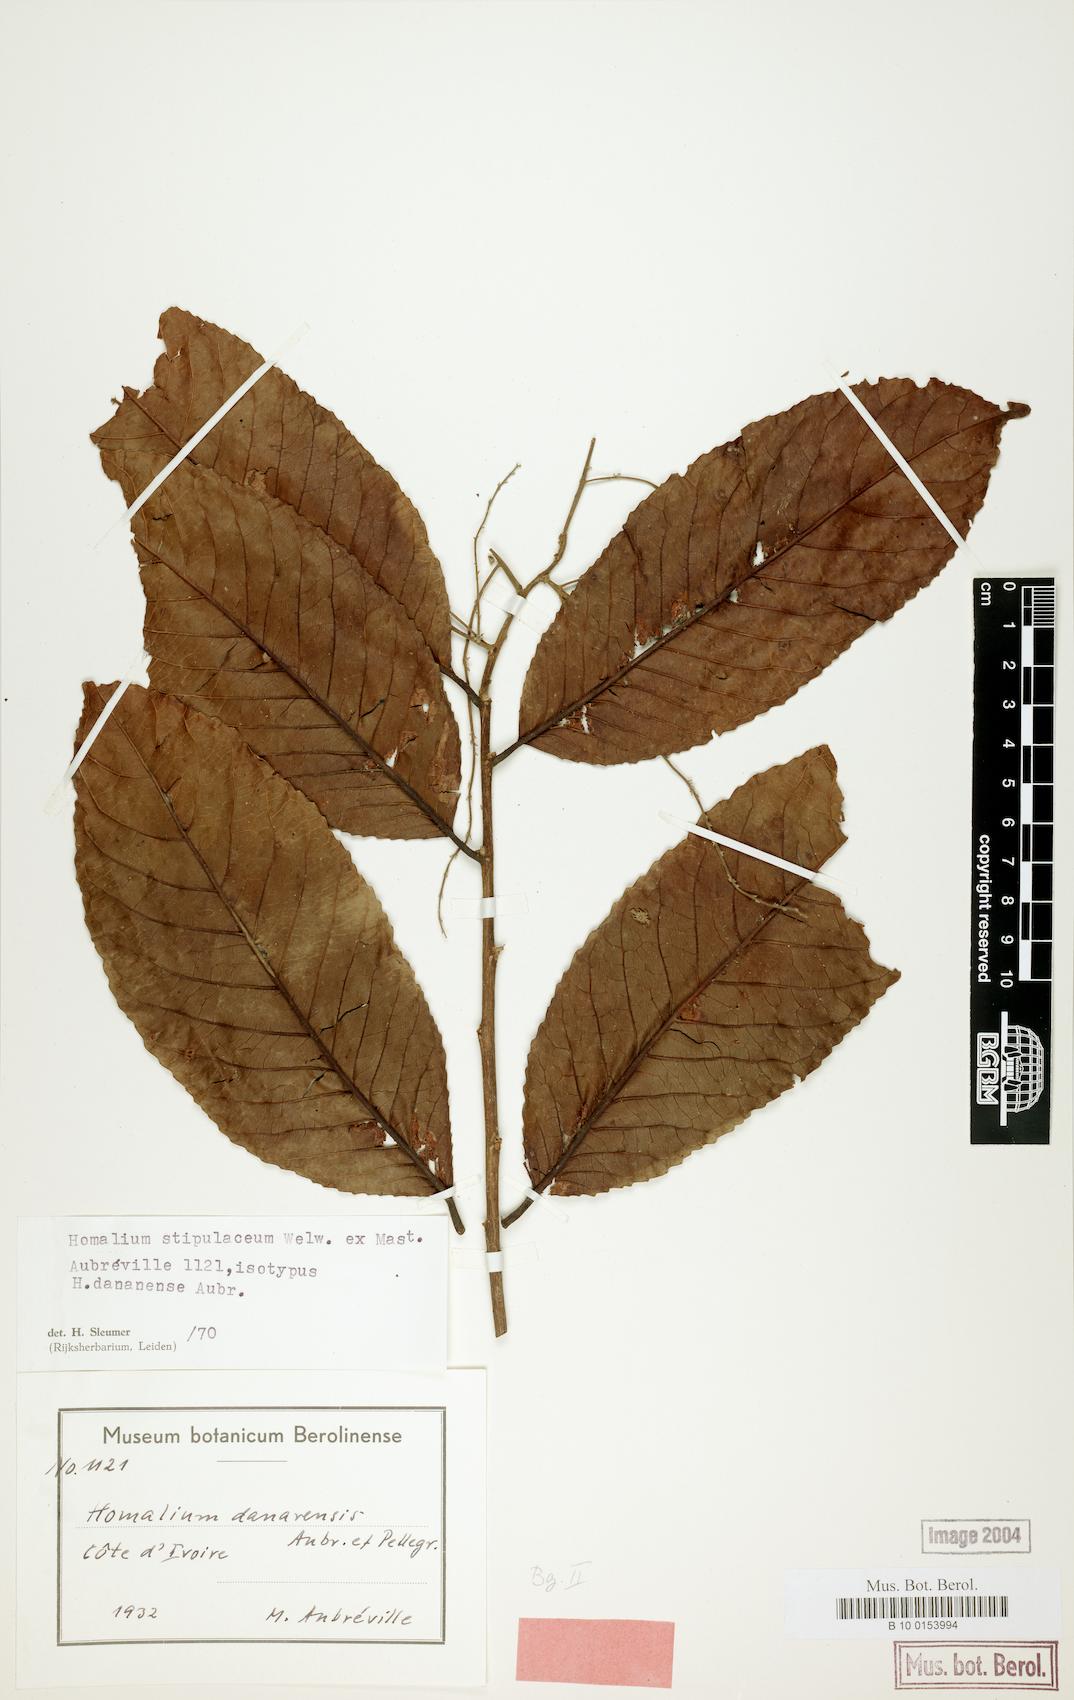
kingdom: Plantae
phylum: Tracheophyta
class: Magnoliopsida
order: Malpighiales
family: Salicaceae
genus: Homalium
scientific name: Homalium stipulaceum
